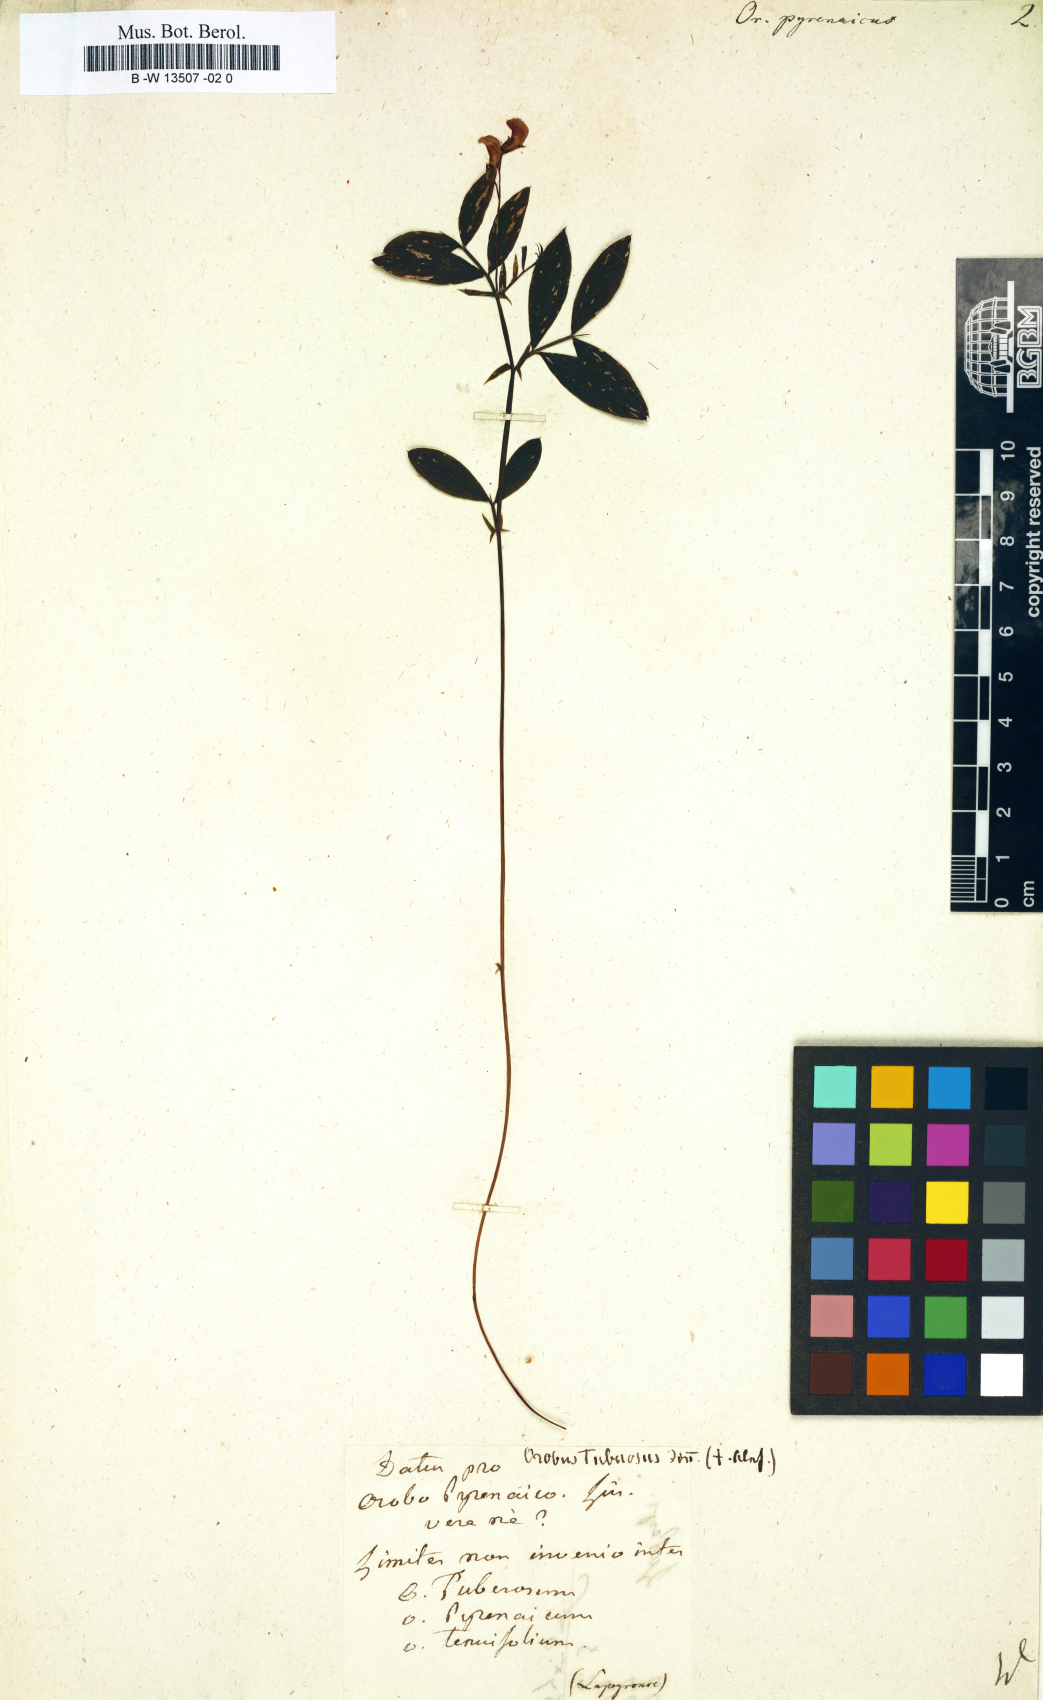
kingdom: Plantae
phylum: Tracheophyta
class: Magnoliopsida
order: Fabales
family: Fabaceae
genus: Lathyrus
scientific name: Lathyrus linifolius
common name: Bitter-vetch
